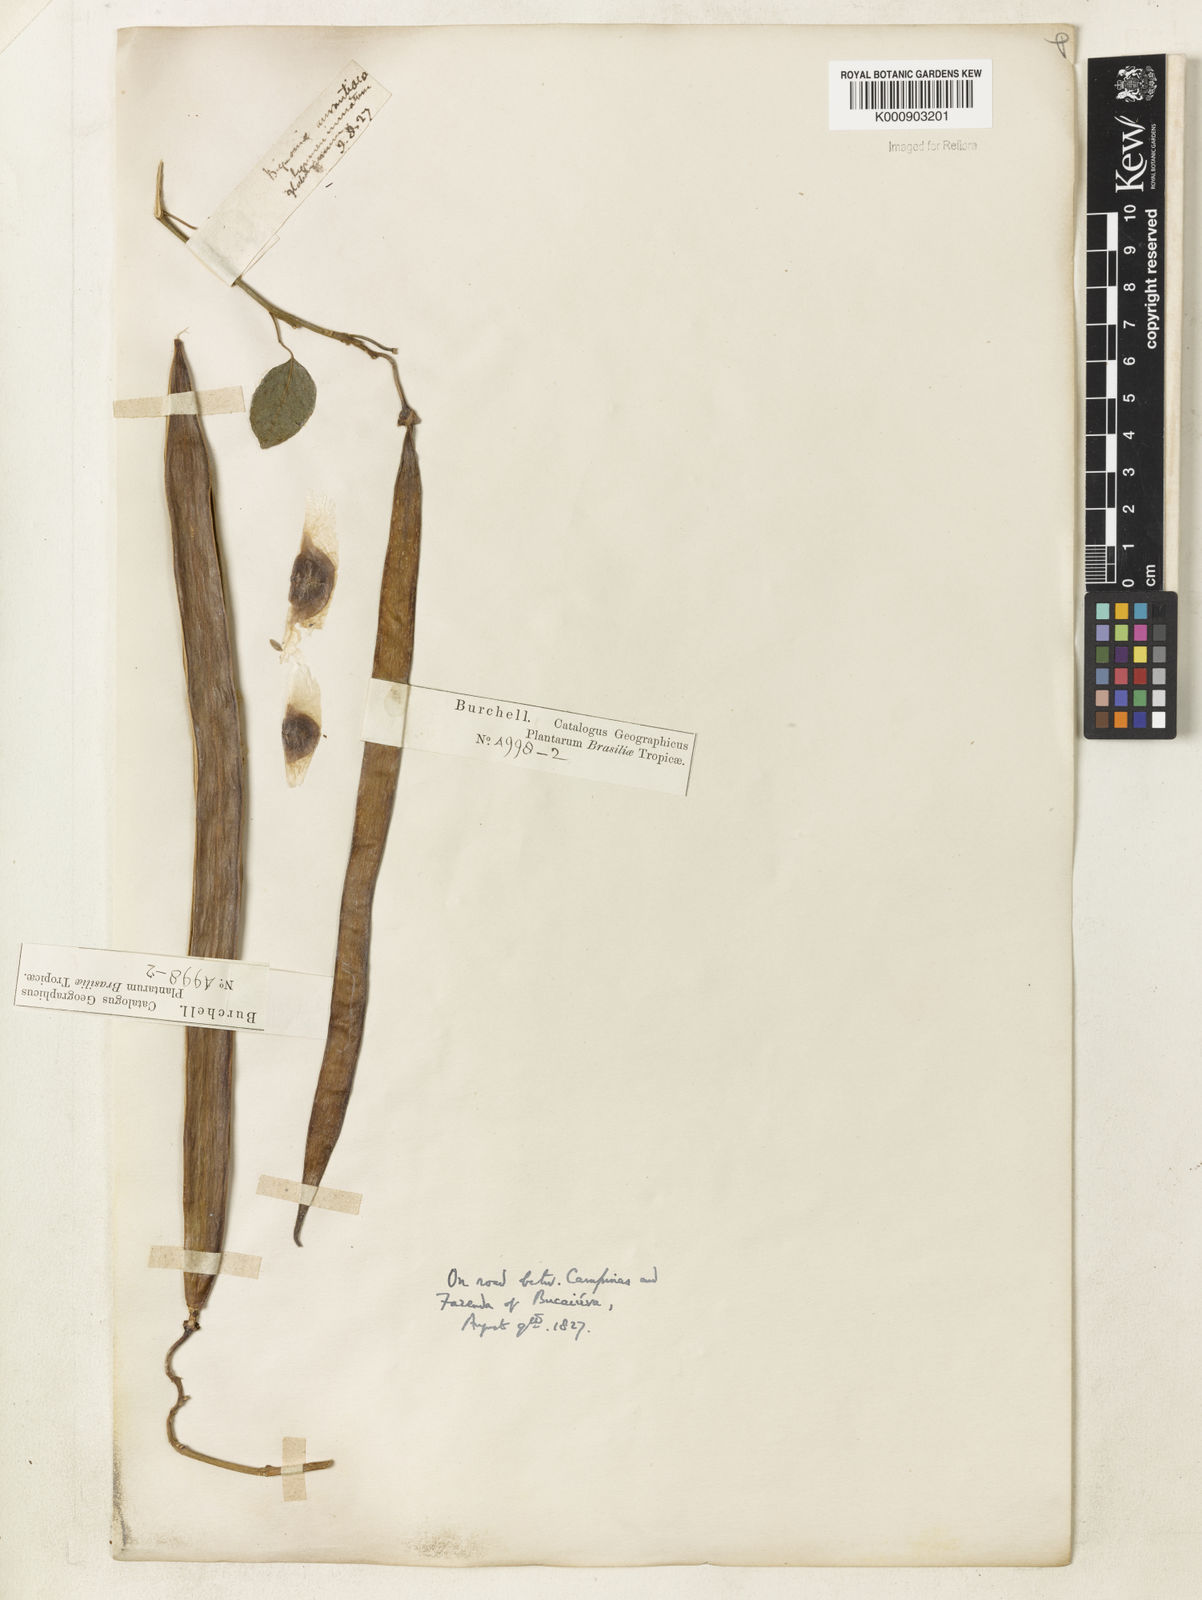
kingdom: Plantae
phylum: Tracheophyta
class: Magnoliopsida
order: Lamiales
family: Bignoniaceae
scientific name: Bignoniaceae
